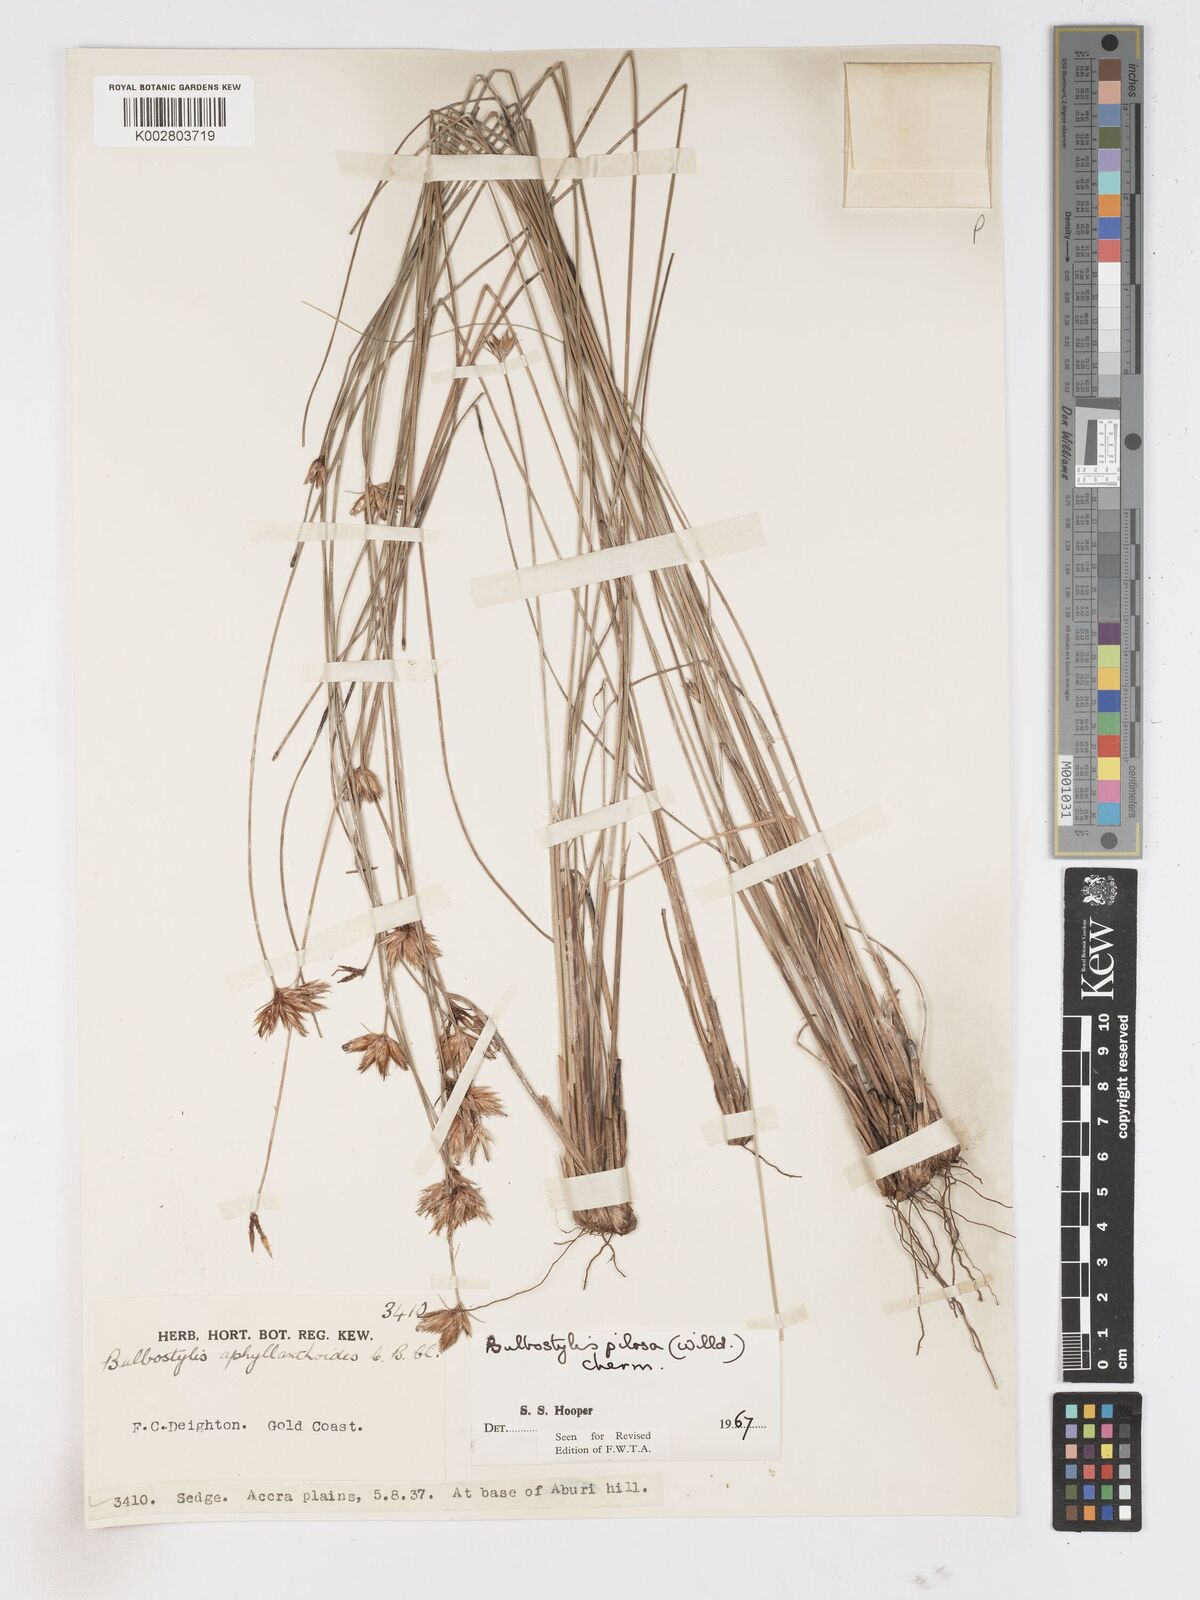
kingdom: Plantae
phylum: Tracheophyta
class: Liliopsida
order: Poales
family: Cyperaceae
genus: Bulbostylis
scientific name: Bulbostylis pilosa
